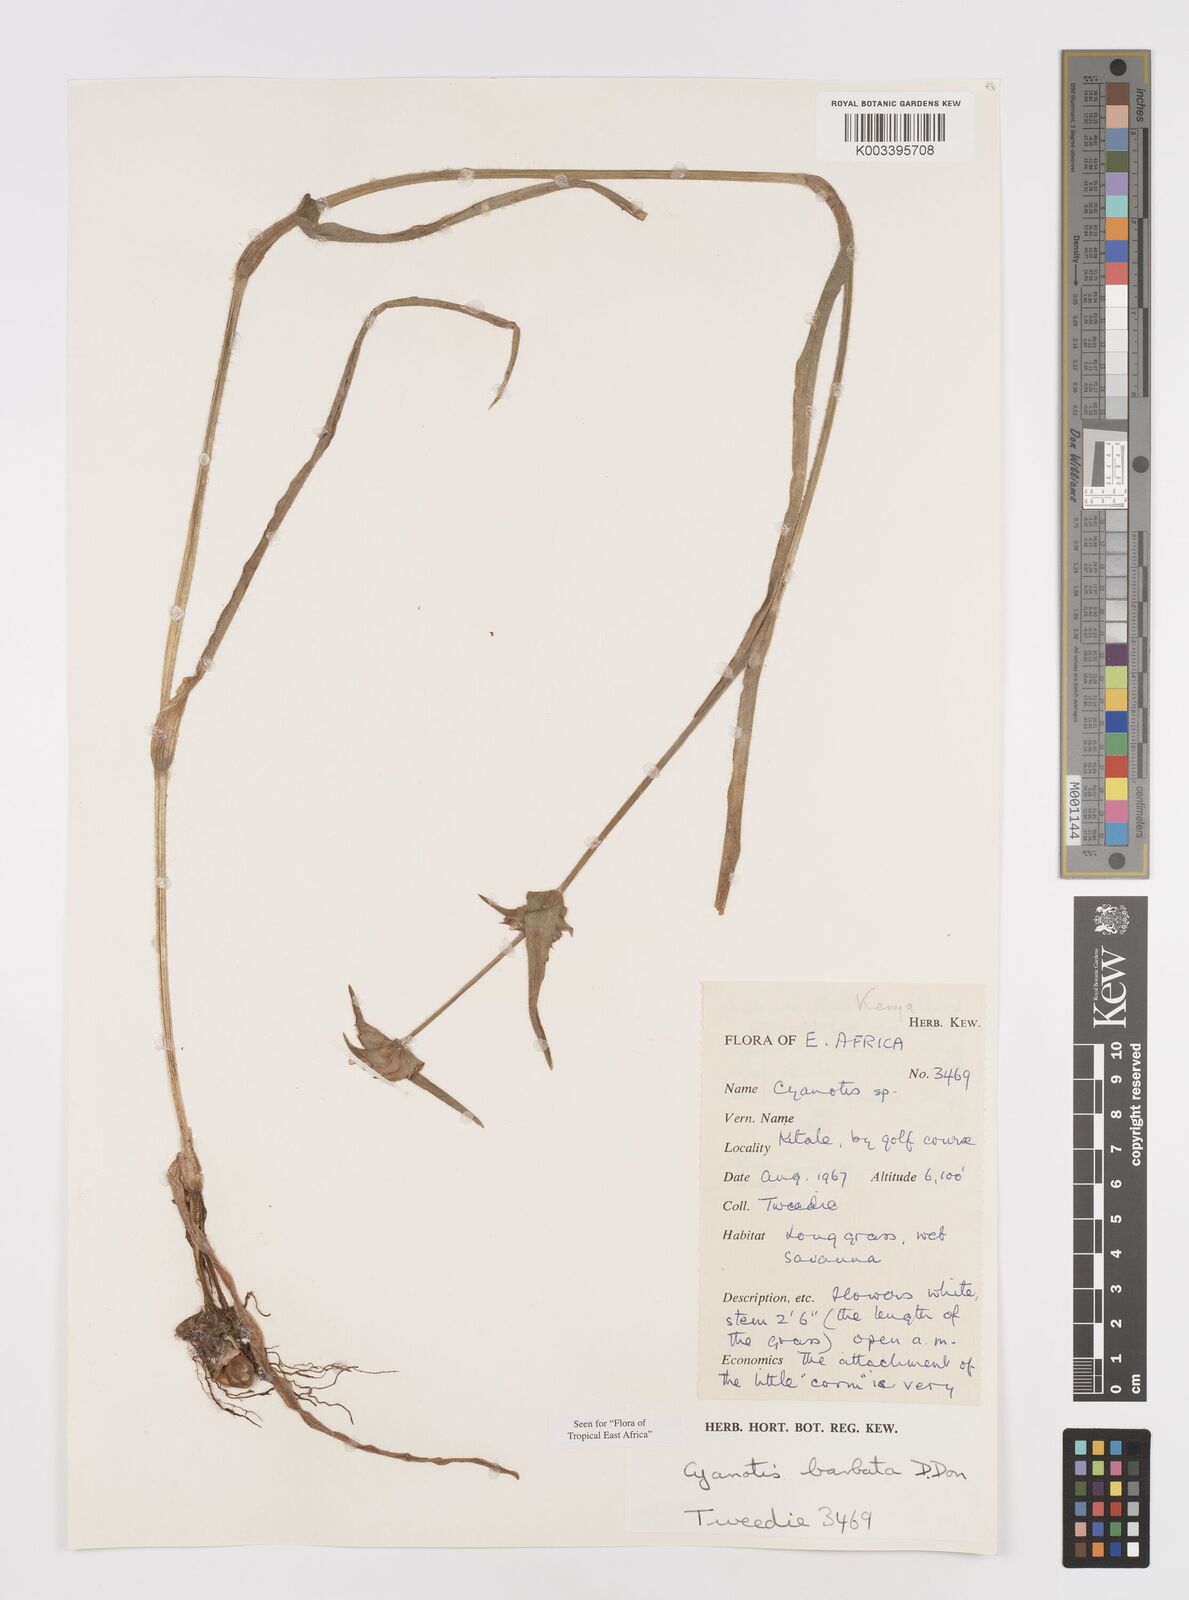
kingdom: Plantae
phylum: Tracheophyta
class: Liliopsida
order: Commelinales
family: Commelinaceae
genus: Cyanotis
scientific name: Cyanotis vaga
